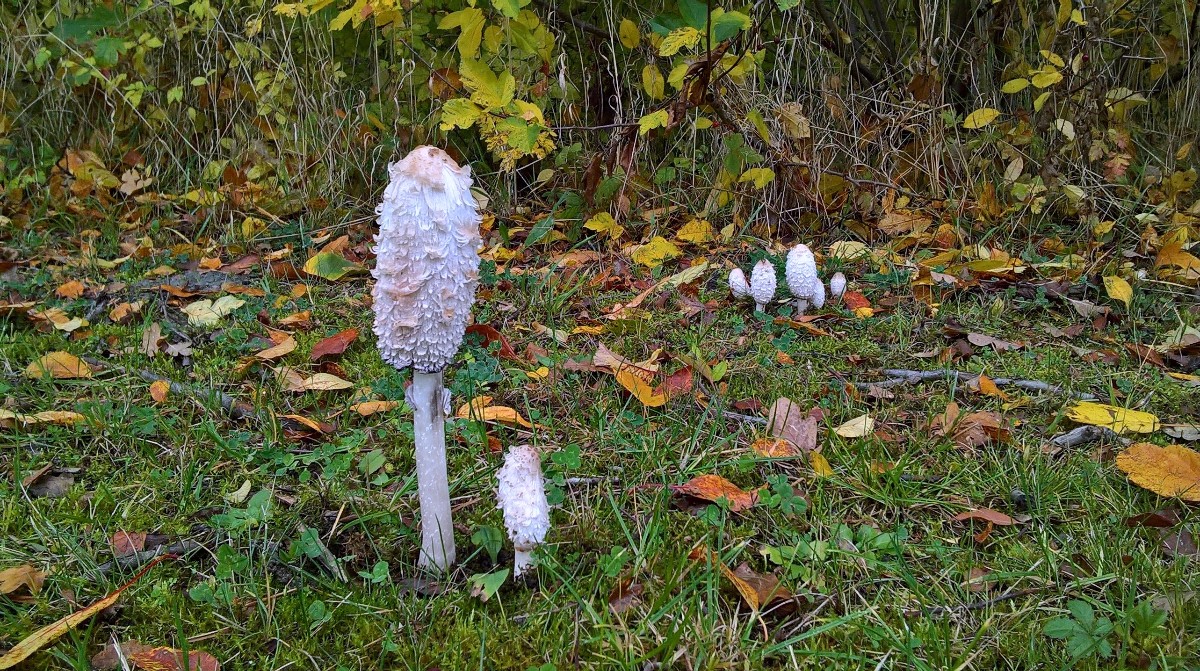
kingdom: Fungi
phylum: Basidiomycota
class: Agaricomycetes
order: Agaricales
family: Agaricaceae
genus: Coprinus
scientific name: Coprinus comatus
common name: stor parykhat
